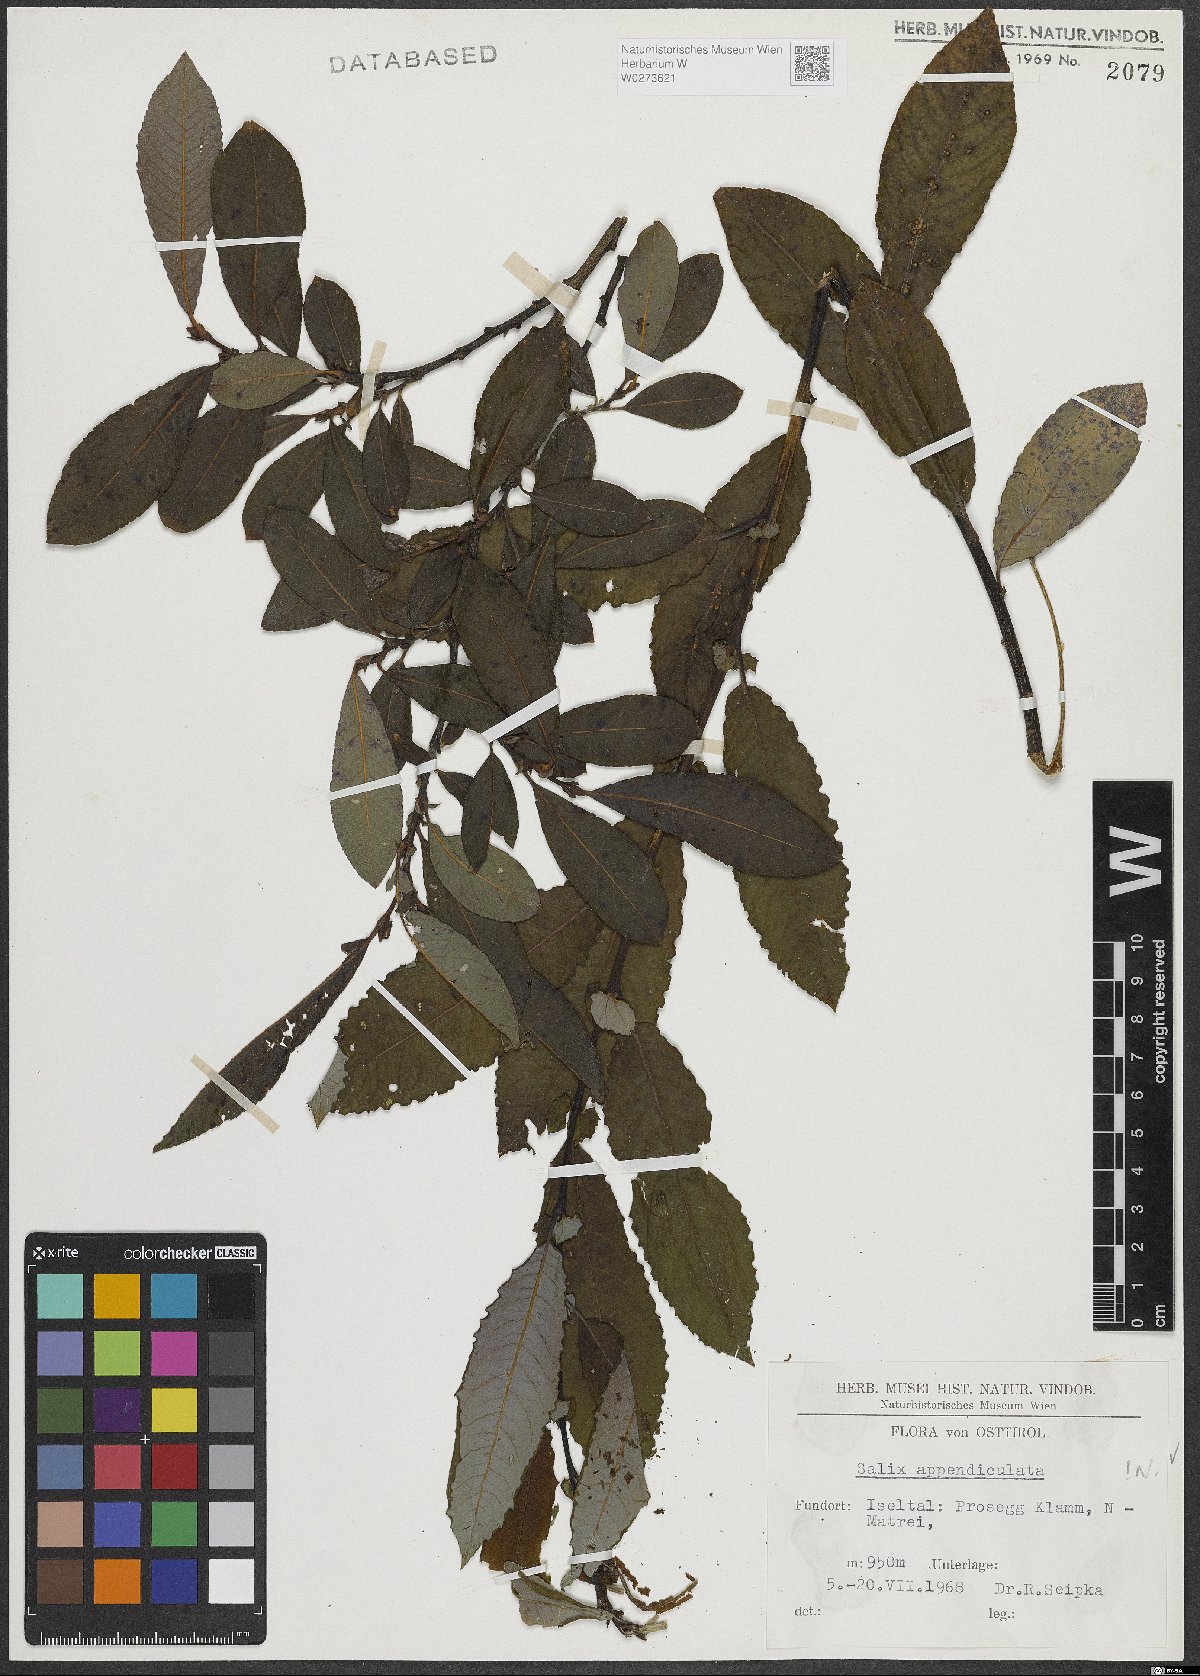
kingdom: Plantae
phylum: Tracheophyta
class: Magnoliopsida
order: Malpighiales
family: Salicaceae
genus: Salix
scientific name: Salix appendiculata
